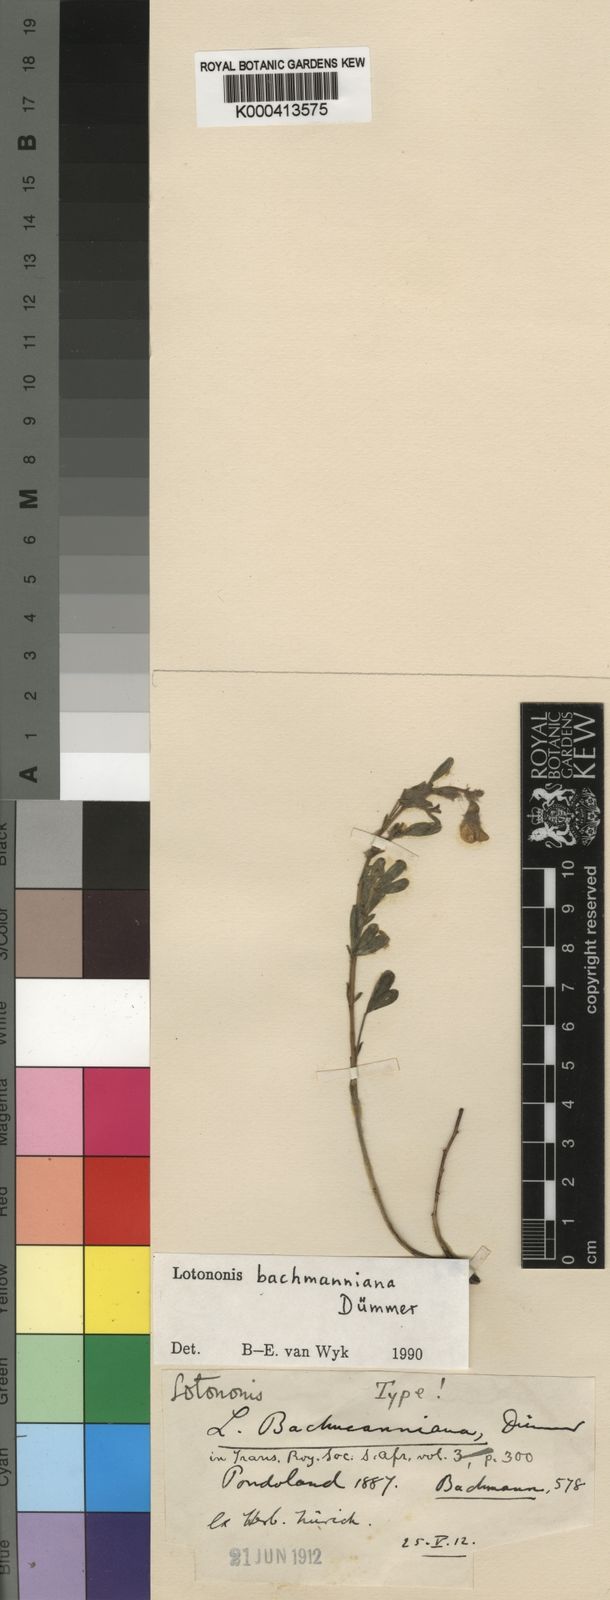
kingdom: Plantae
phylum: Tracheophyta
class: Magnoliopsida
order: Fabales
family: Fabaceae
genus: Lotononis
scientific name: Lotononis bachmanniana
